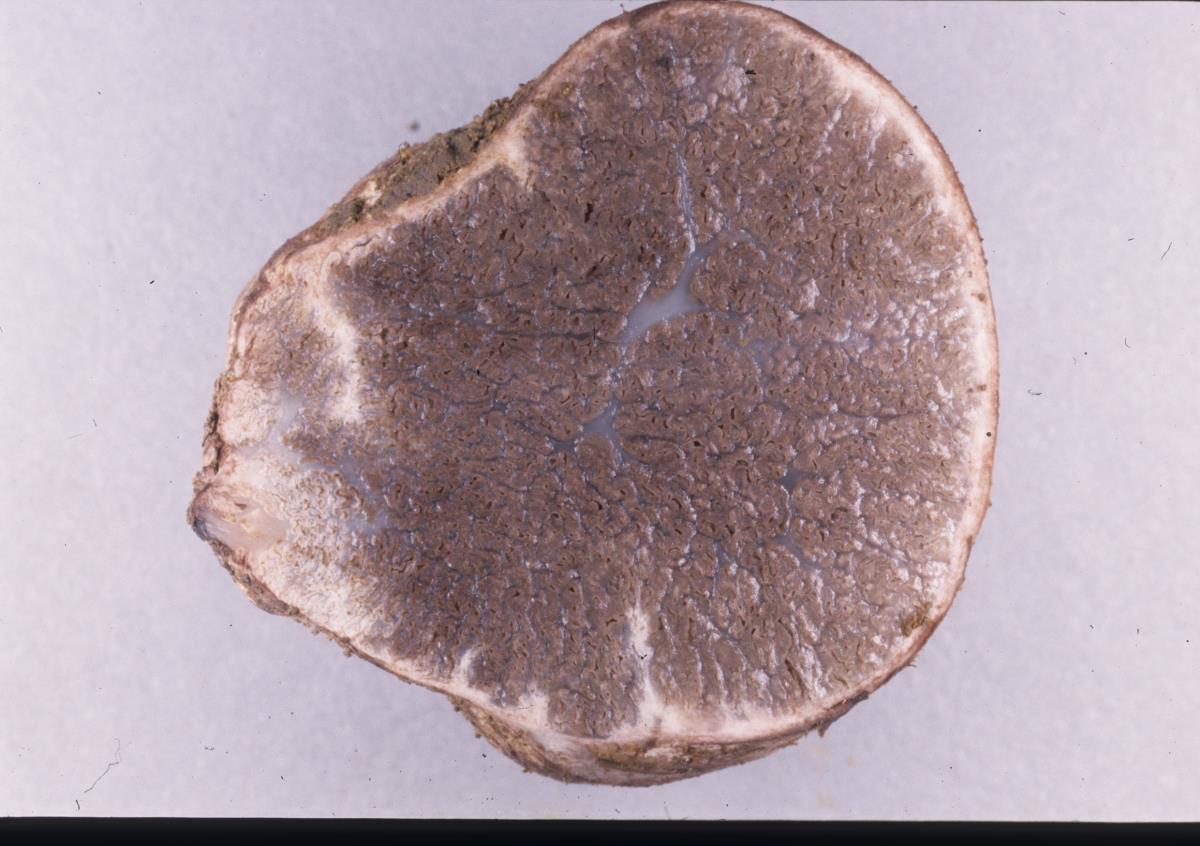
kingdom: Fungi
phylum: Basidiomycota
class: Agaricomycetes
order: Hysterangiales
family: Gallaceaceae
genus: Gallacea
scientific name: Gallacea dingleyae
